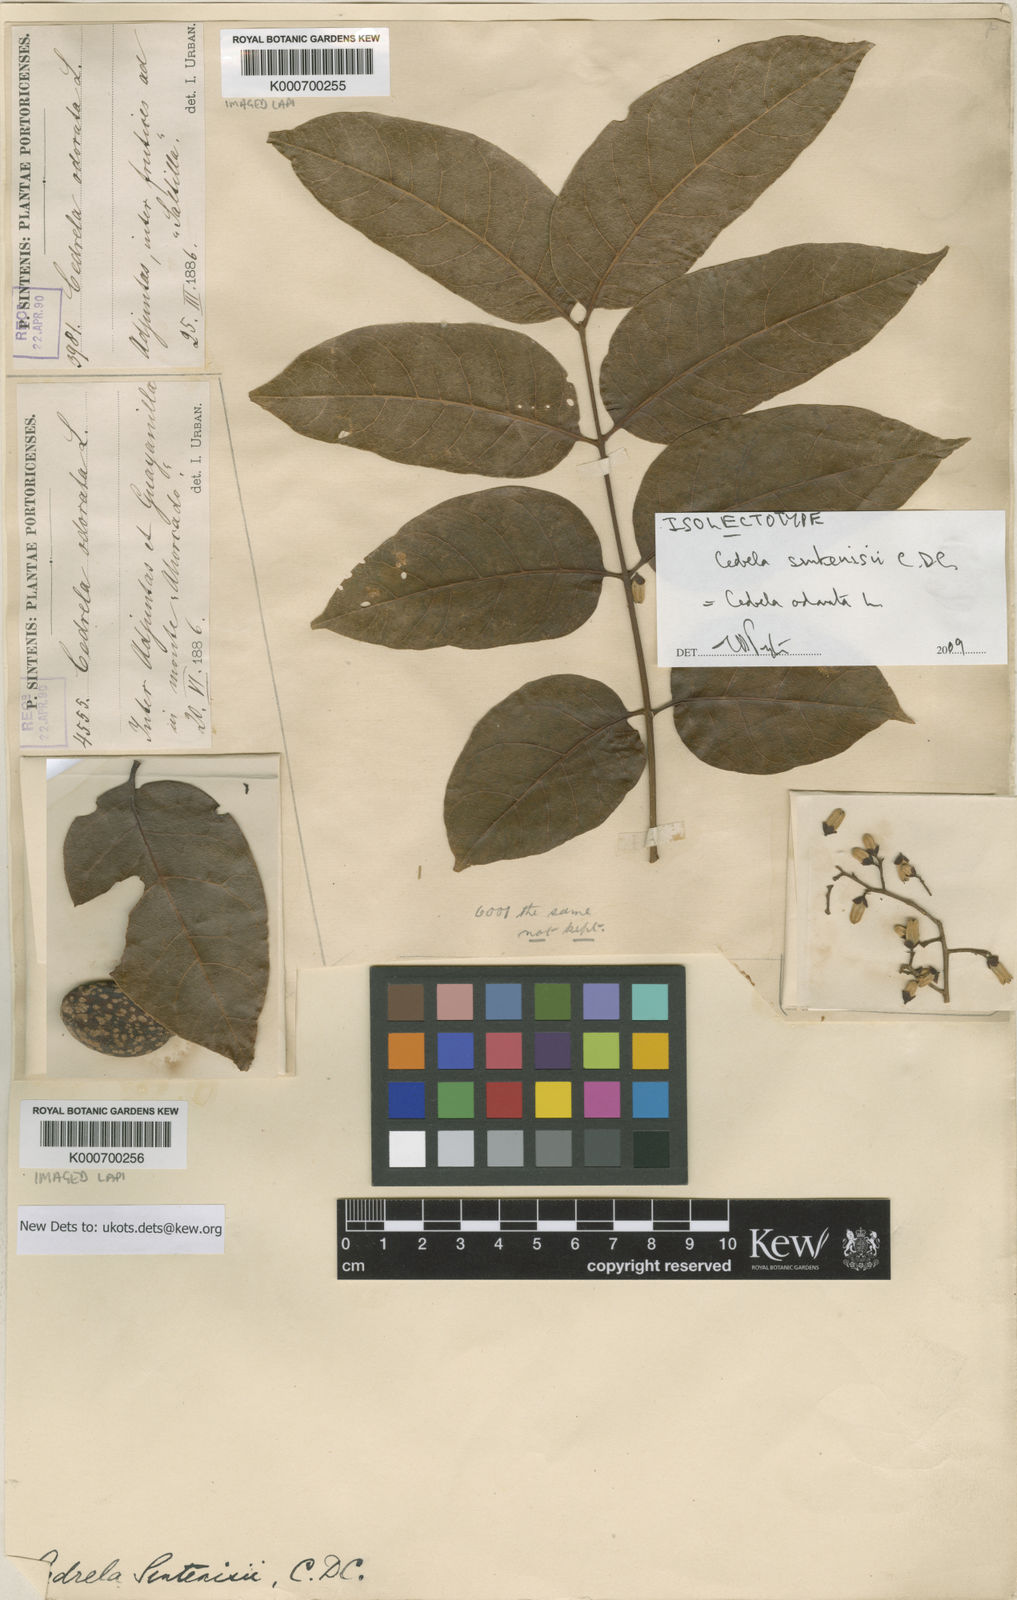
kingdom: Plantae
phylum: Tracheophyta
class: Magnoliopsida
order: Sapindales
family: Meliaceae
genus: Cedrela
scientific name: Cedrela odorata
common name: Red cedar
